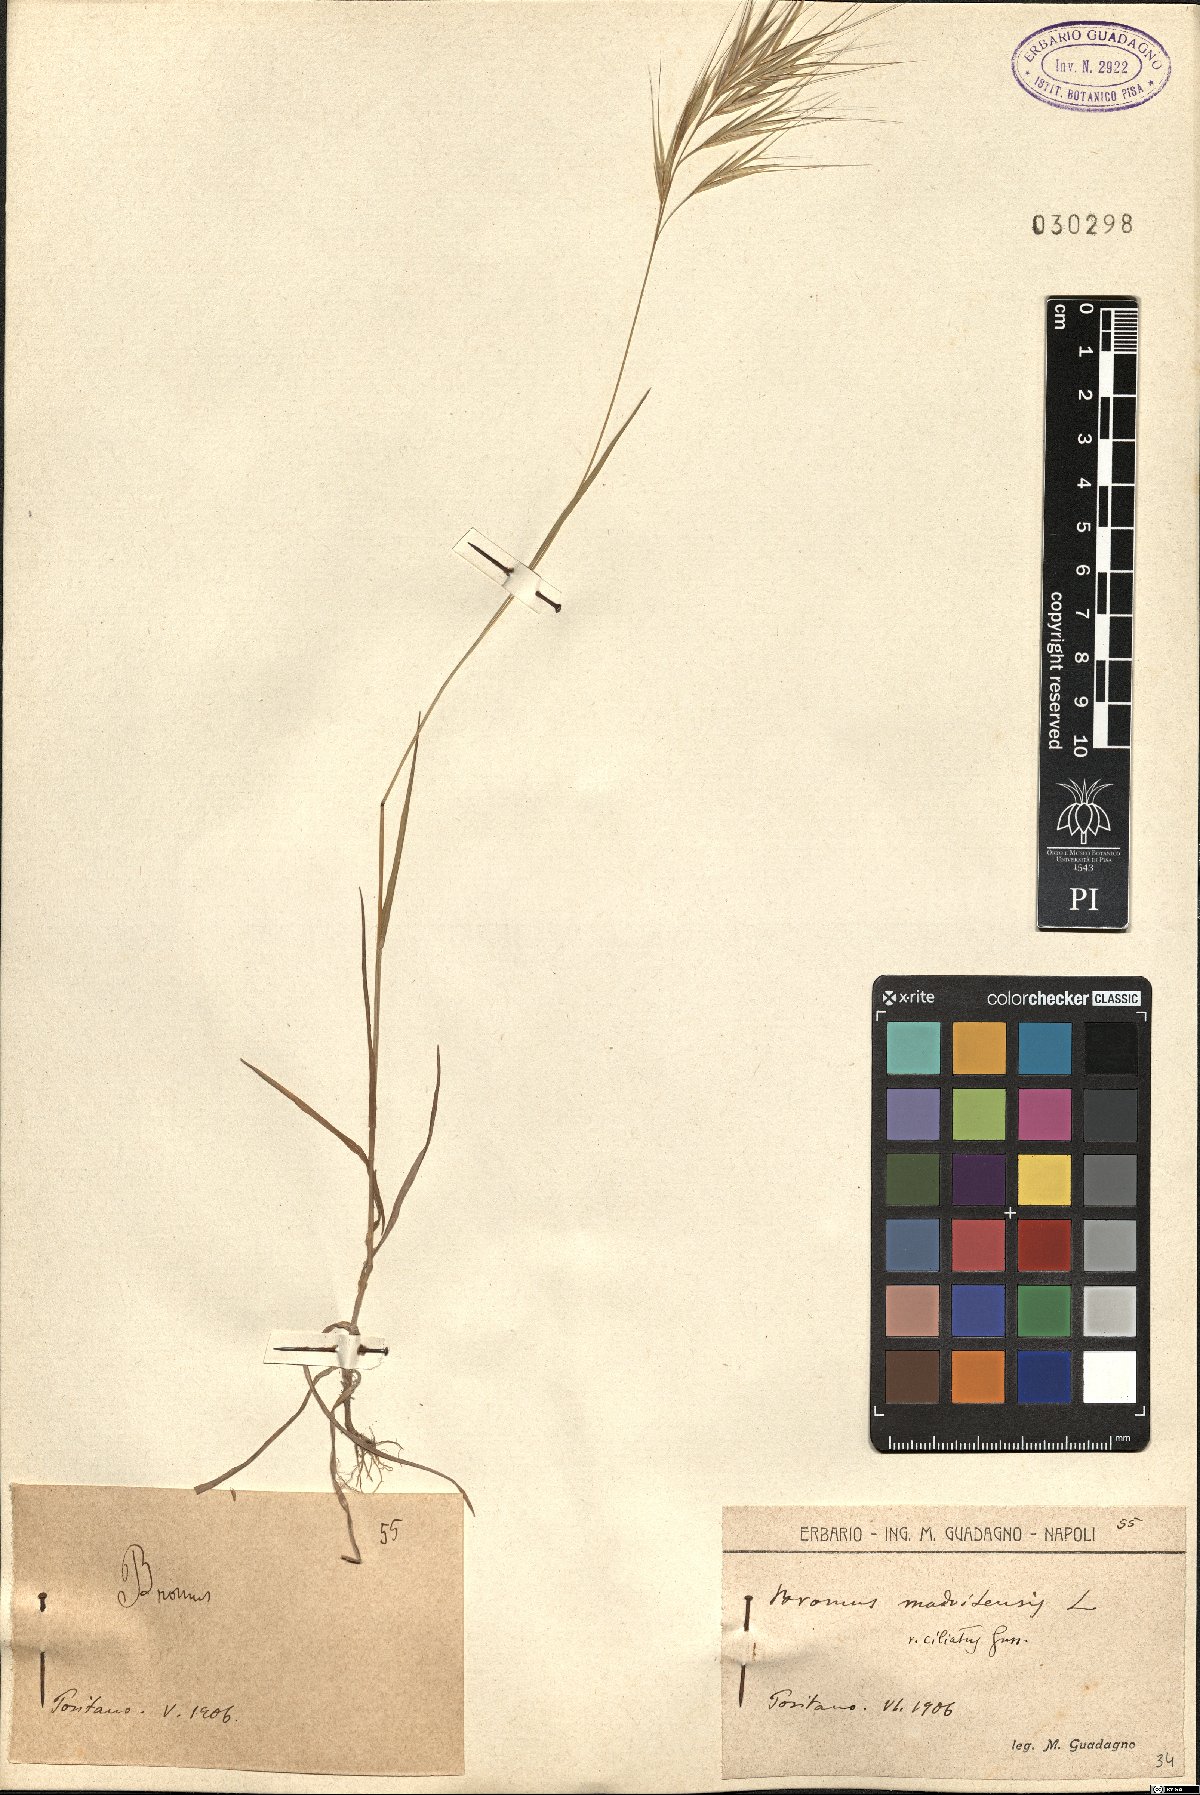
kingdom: Plantae
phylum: Tracheophyta
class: Liliopsida
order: Poales
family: Poaceae
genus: Bromus
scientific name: Bromus madritensis
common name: Compact brome
